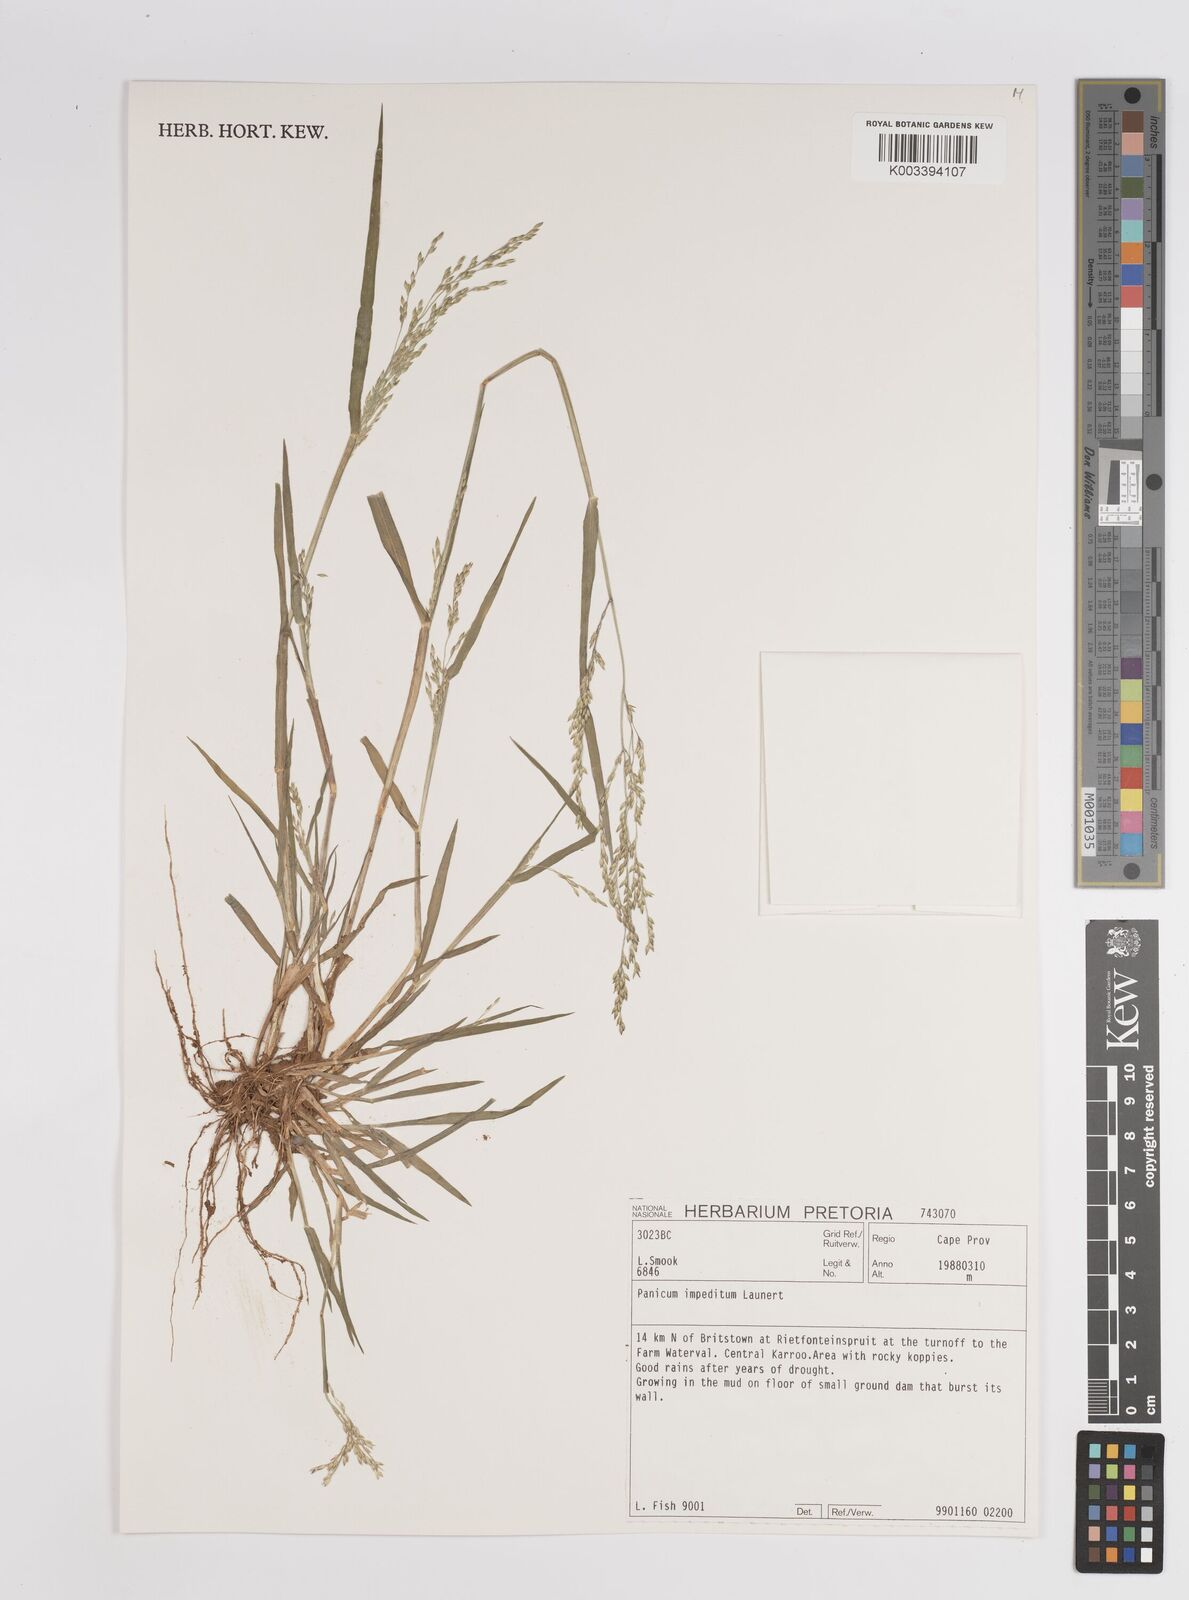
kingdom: Plantae
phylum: Tracheophyta
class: Liliopsida
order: Poales
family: Poaceae
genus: Panicum
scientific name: Panicum impeditum
